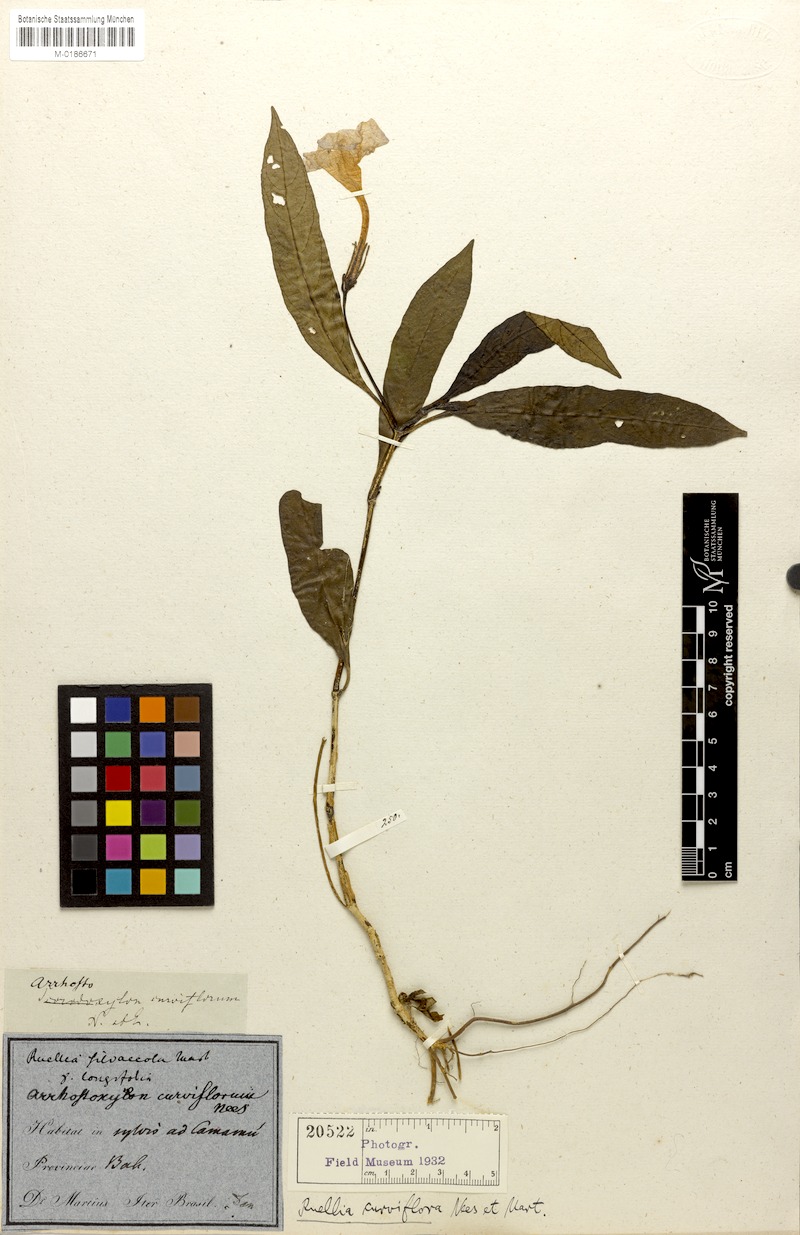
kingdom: Plantae
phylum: Tracheophyta
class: Magnoliopsida
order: Lamiales
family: Acanthaceae
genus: Ruellia
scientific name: Ruellia curviflora
